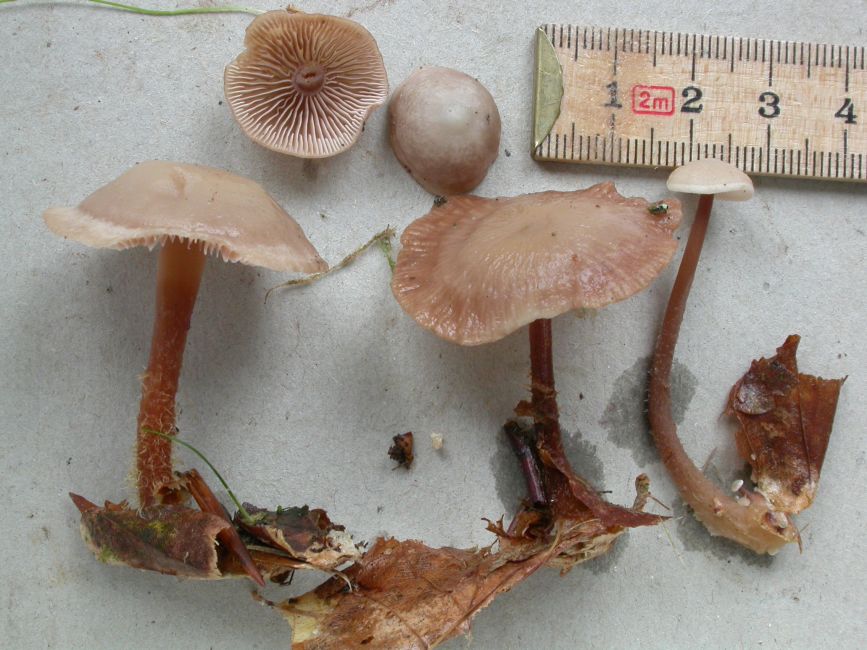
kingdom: Fungi
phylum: Basidiomycota
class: Agaricomycetes
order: Agaricales
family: Omphalotaceae
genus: Gymnopus
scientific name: Gymnopus fagiphilus
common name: bøgeløv-fladhat
